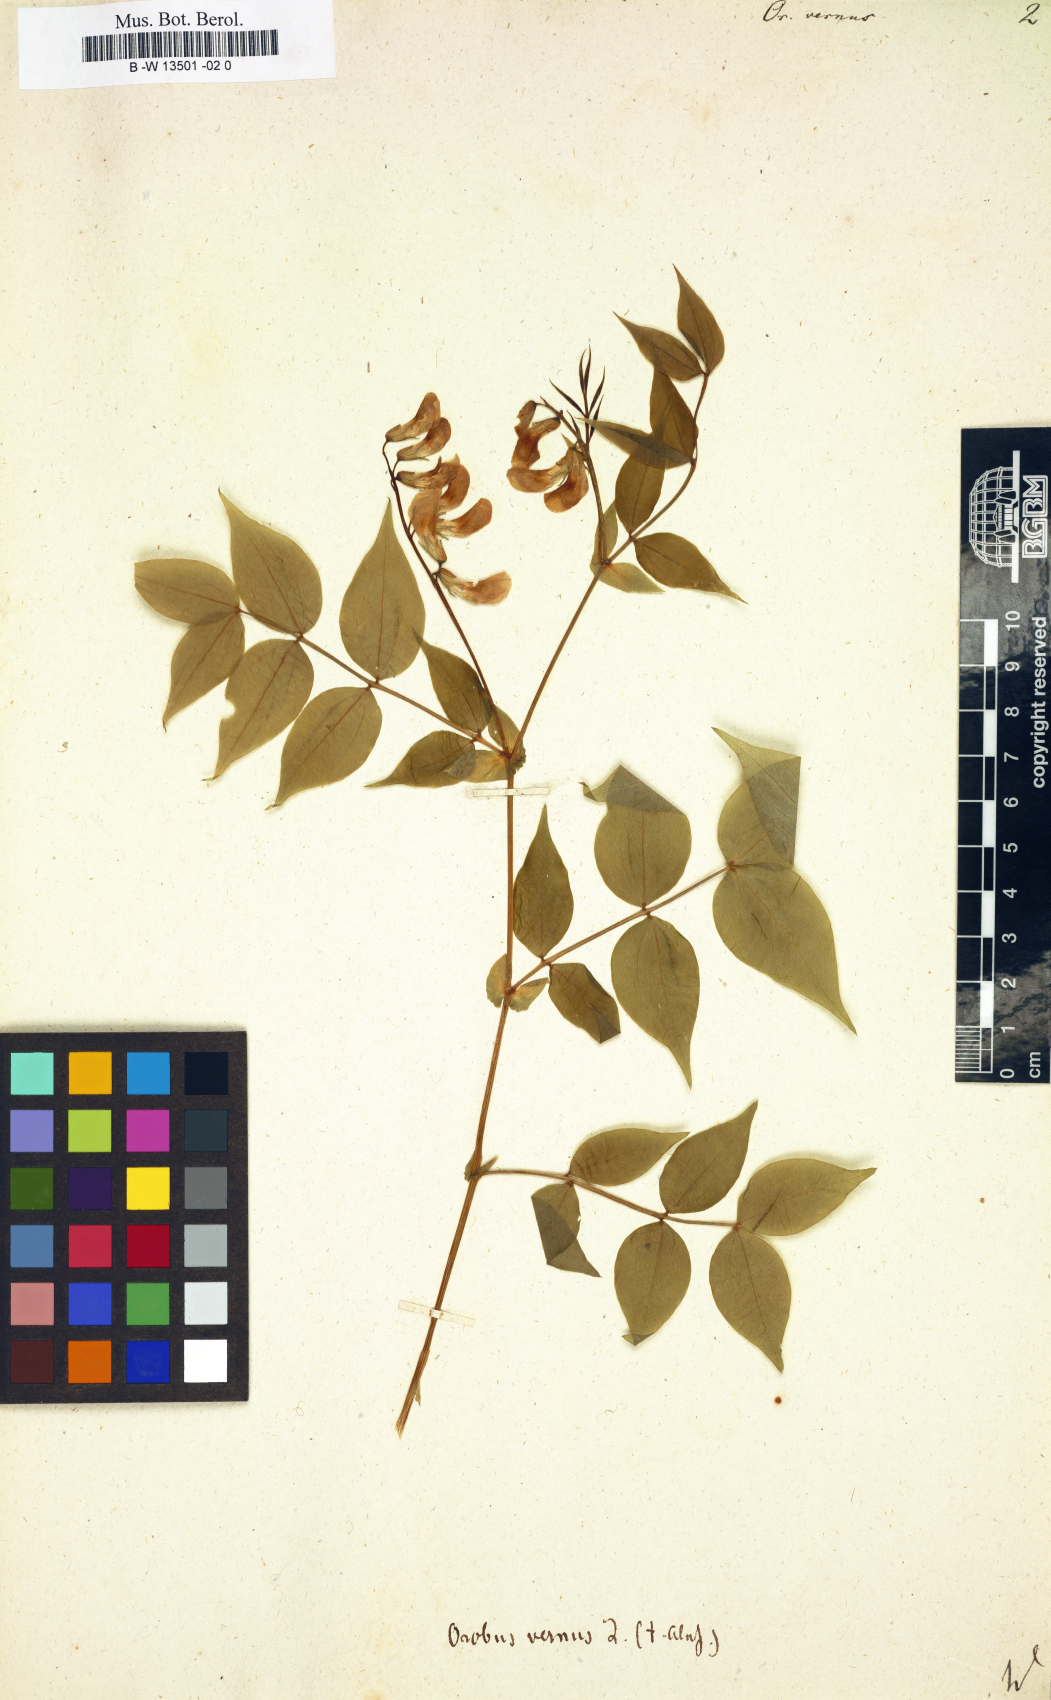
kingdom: Plantae
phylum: Tracheophyta
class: Magnoliopsida
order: Fabales
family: Fabaceae
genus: Lathyrus
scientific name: Lathyrus vernus
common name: Spring pea
